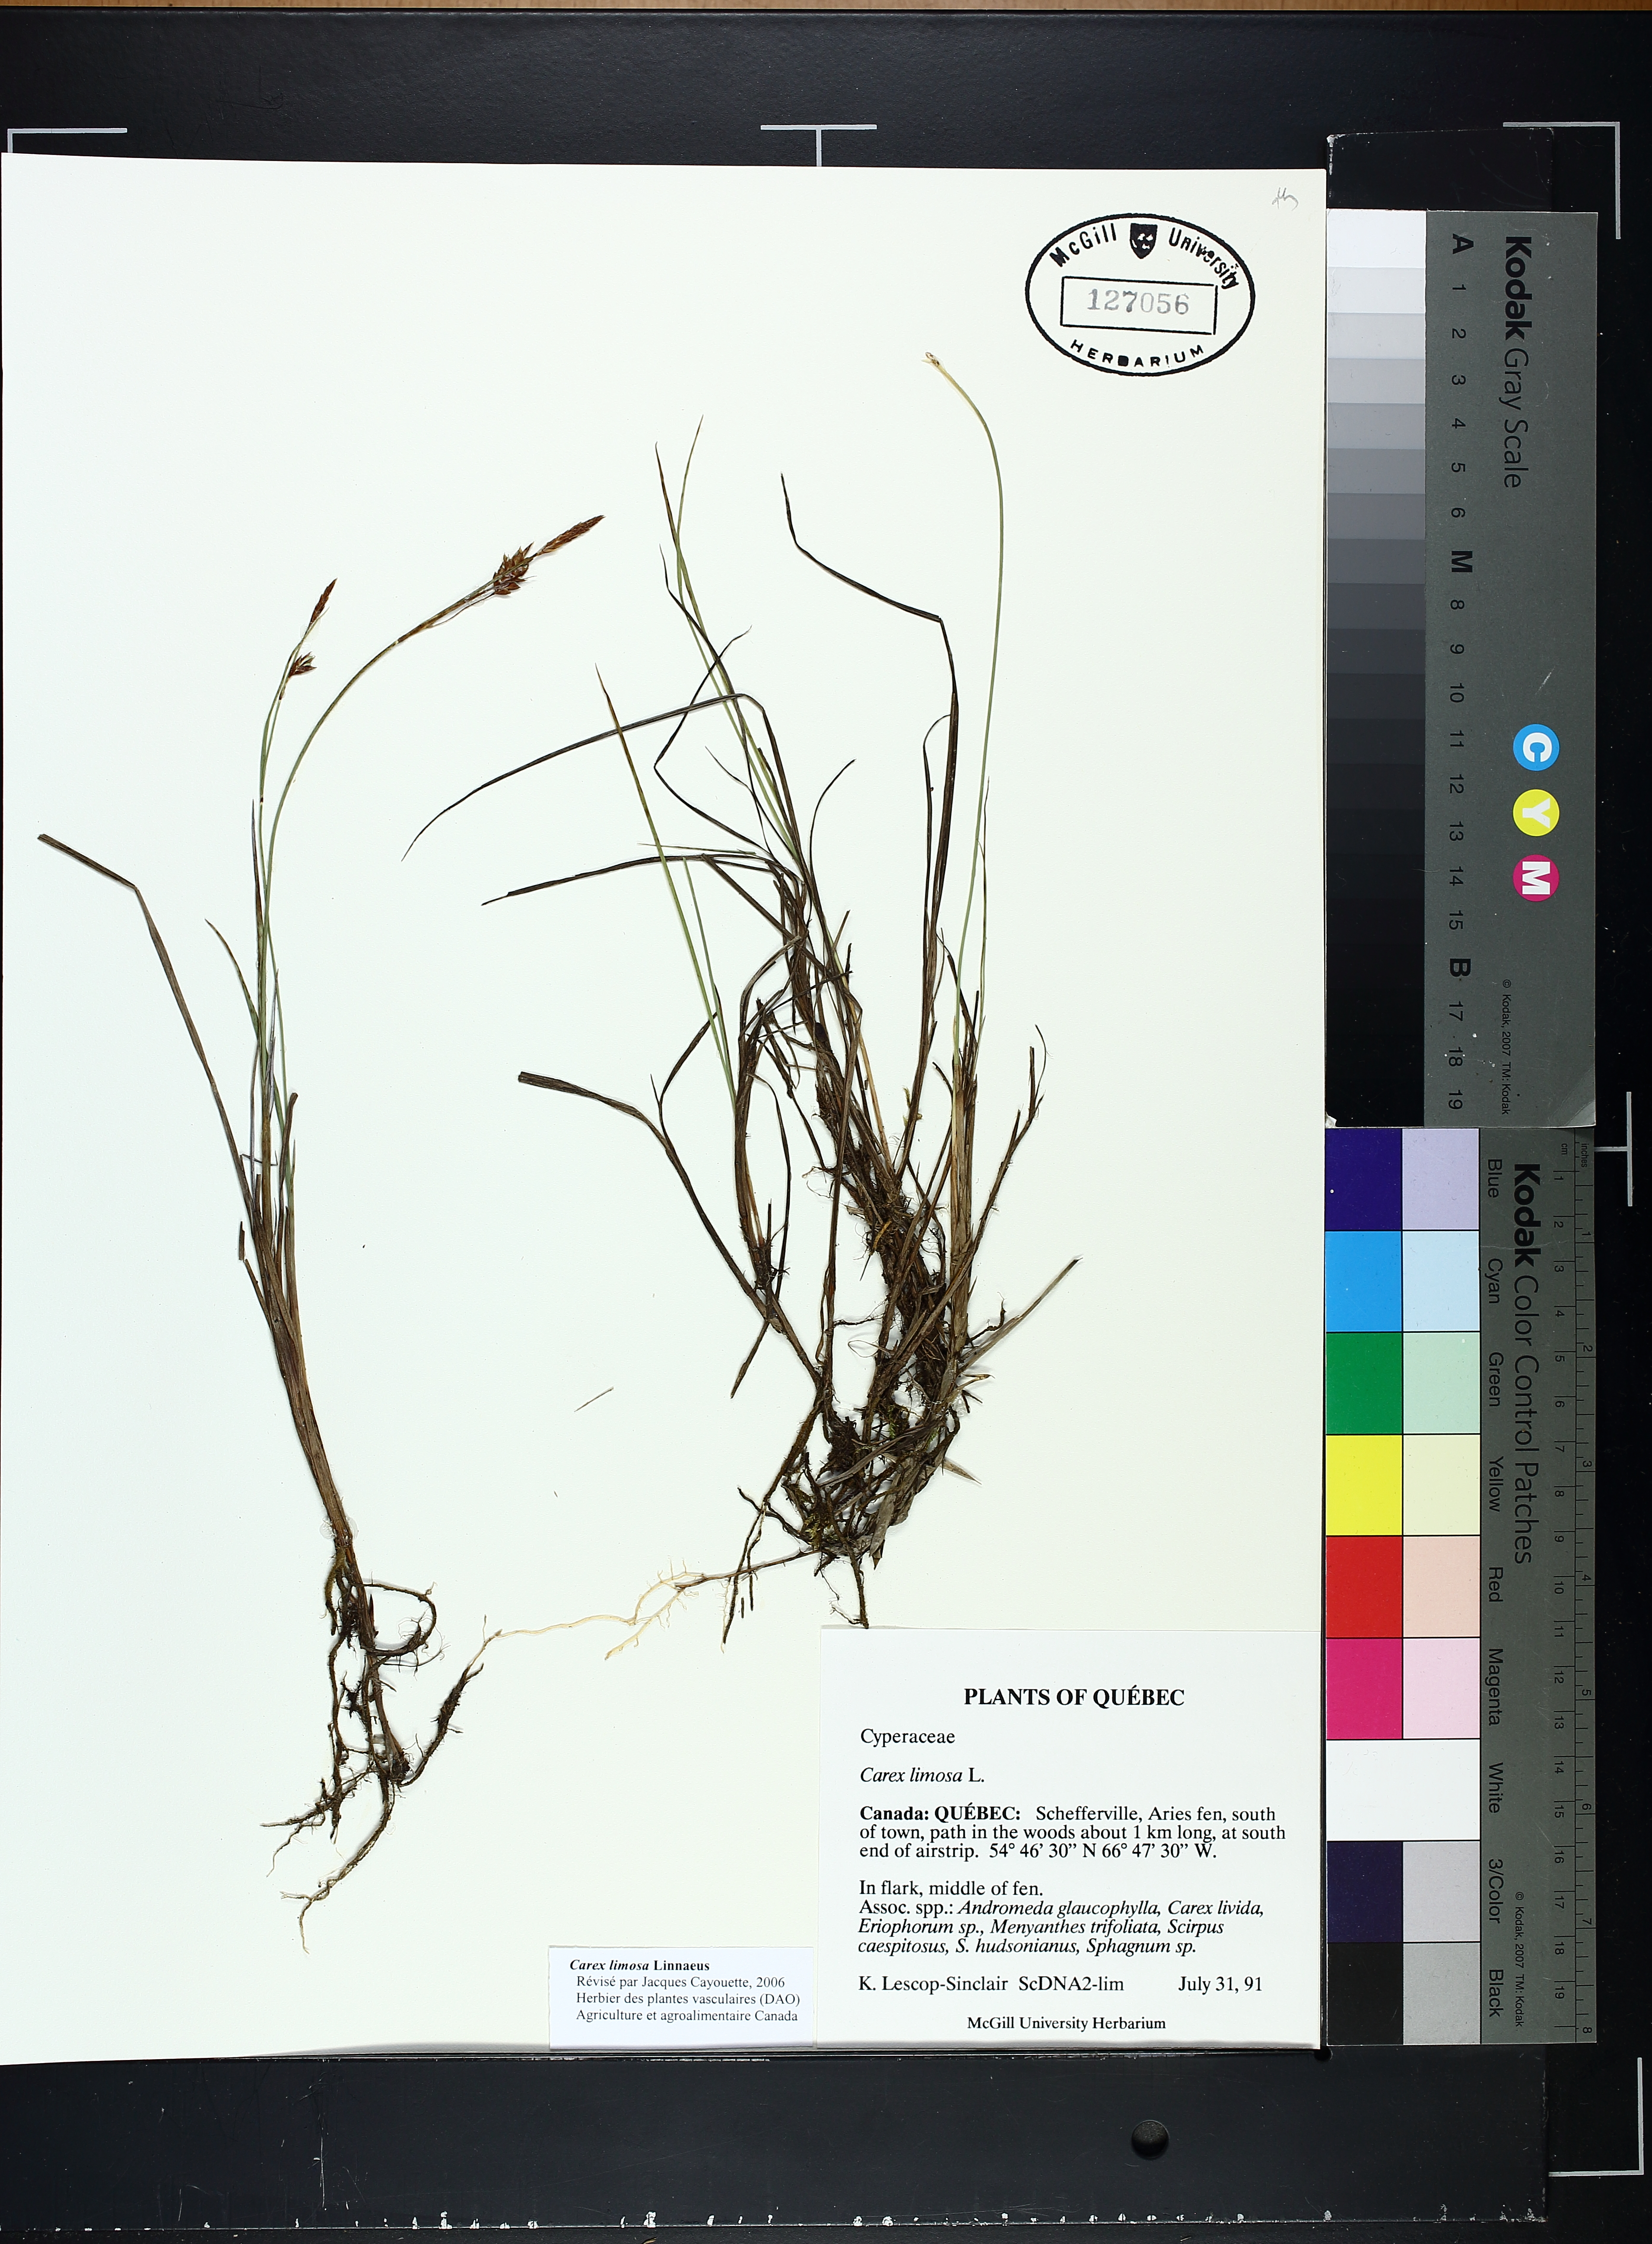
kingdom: Plantae
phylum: Tracheophyta
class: Liliopsida
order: Poales
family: Cyperaceae
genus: Carex
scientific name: Carex limosa
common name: Bog sedge
